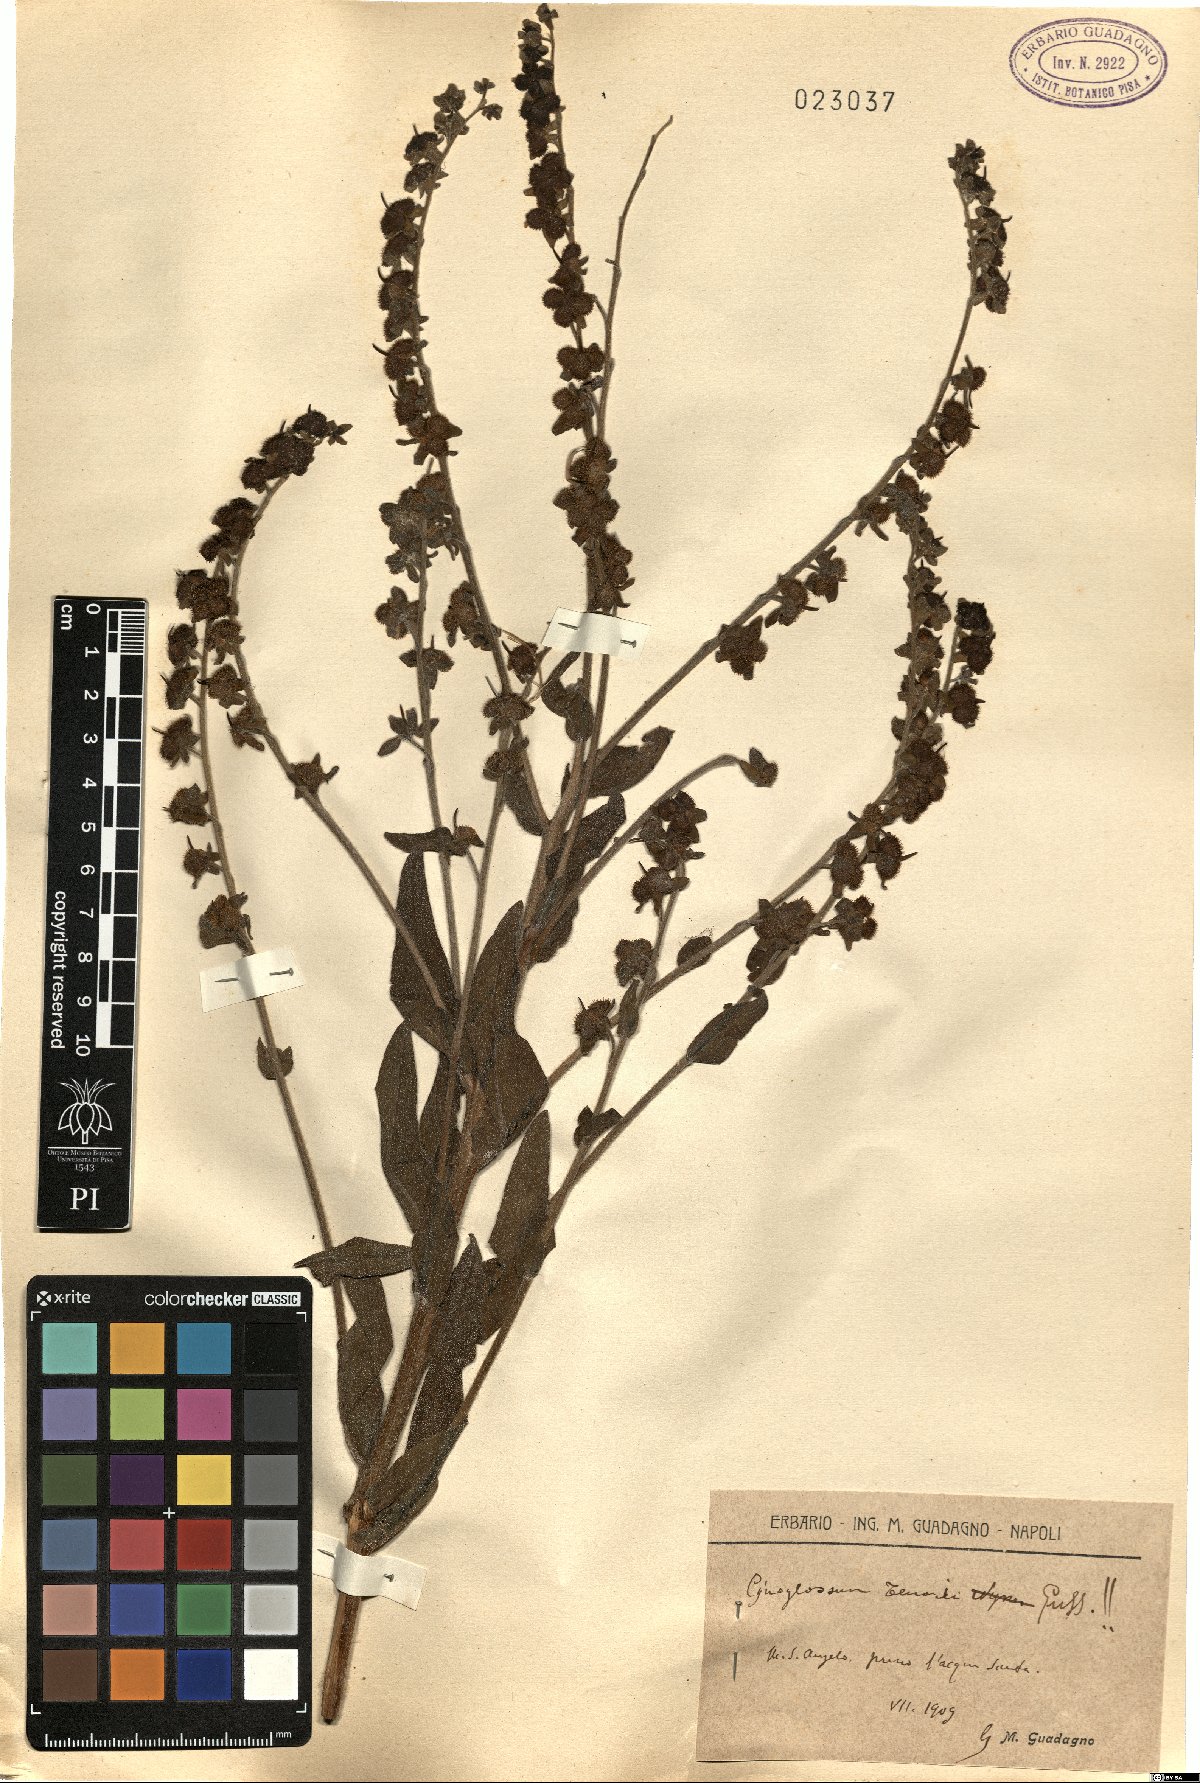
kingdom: Plantae
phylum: Tracheophyta
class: Magnoliopsida
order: Boraginales
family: Boraginaceae
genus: Cynoglossum
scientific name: Cynoglossum nebrodense
